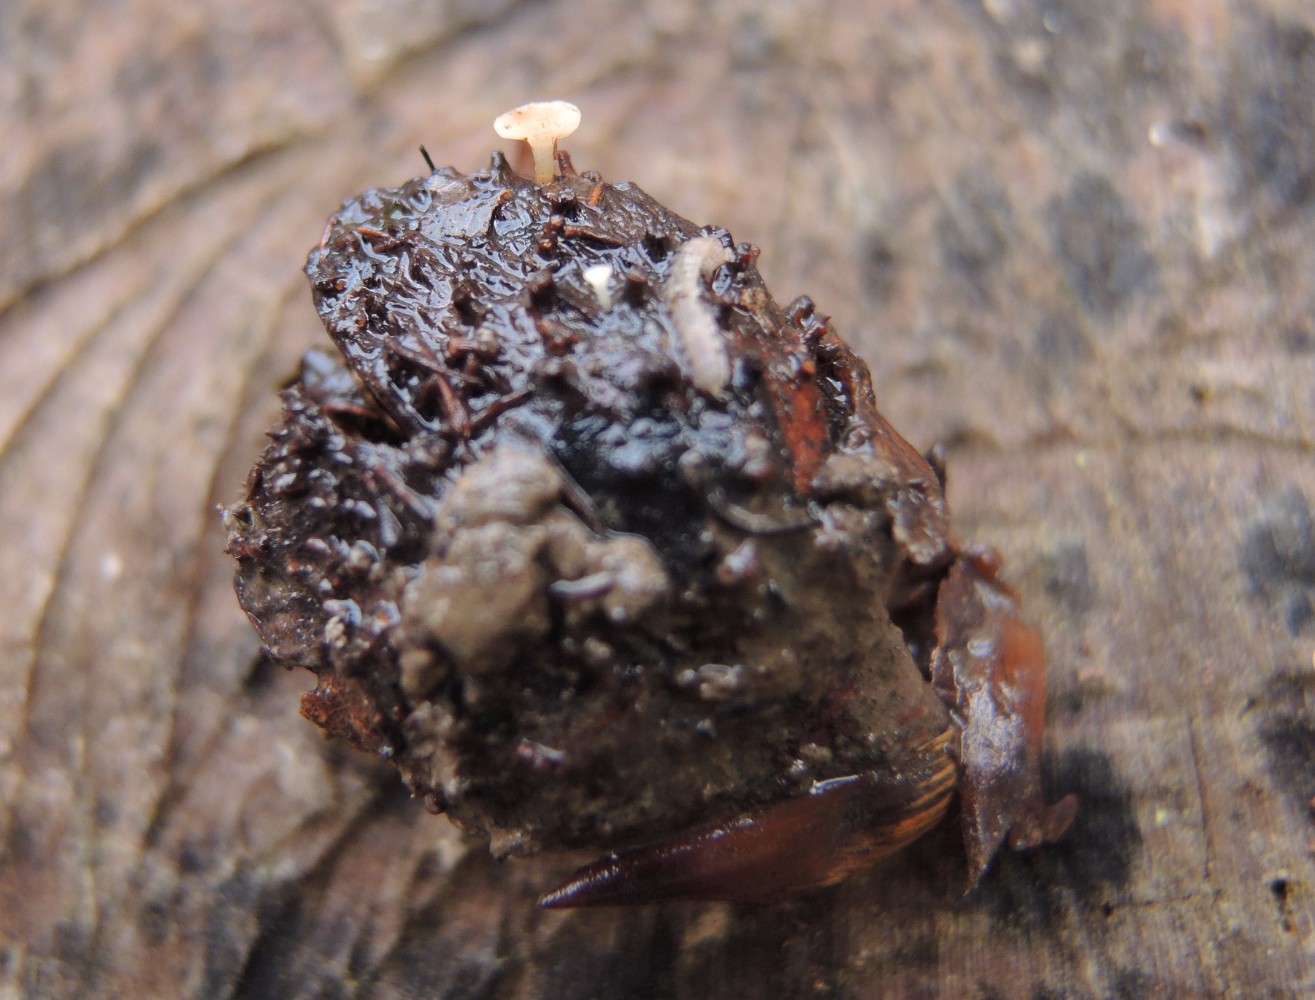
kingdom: Fungi
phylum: Ascomycota
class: Leotiomycetes
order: Helotiales
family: Helotiaceae
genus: Hymenoscyphus
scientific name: Hymenoscyphus fagineus
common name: vellugtende stilkskive
